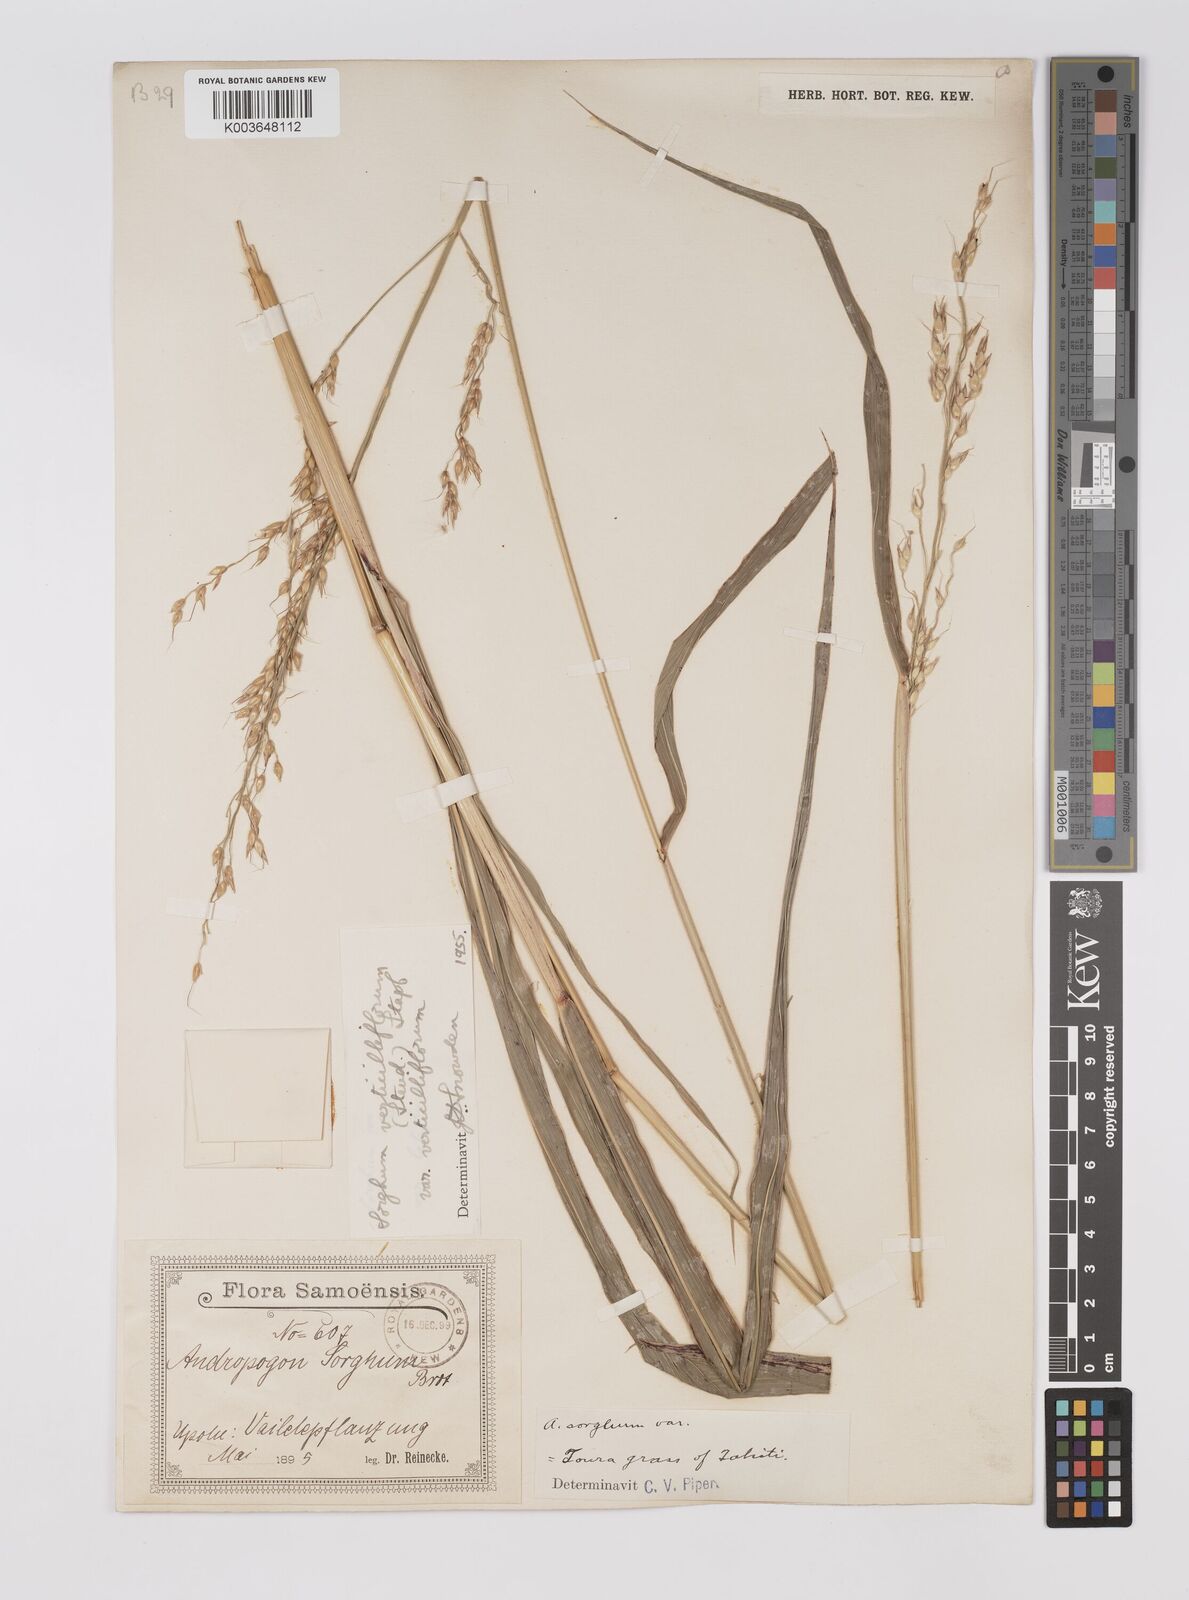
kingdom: Plantae
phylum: Tracheophyta
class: Liliopsida
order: Poales
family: Poaceae
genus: Sorghum
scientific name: Sorghum arundinaceum
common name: Sorghum
